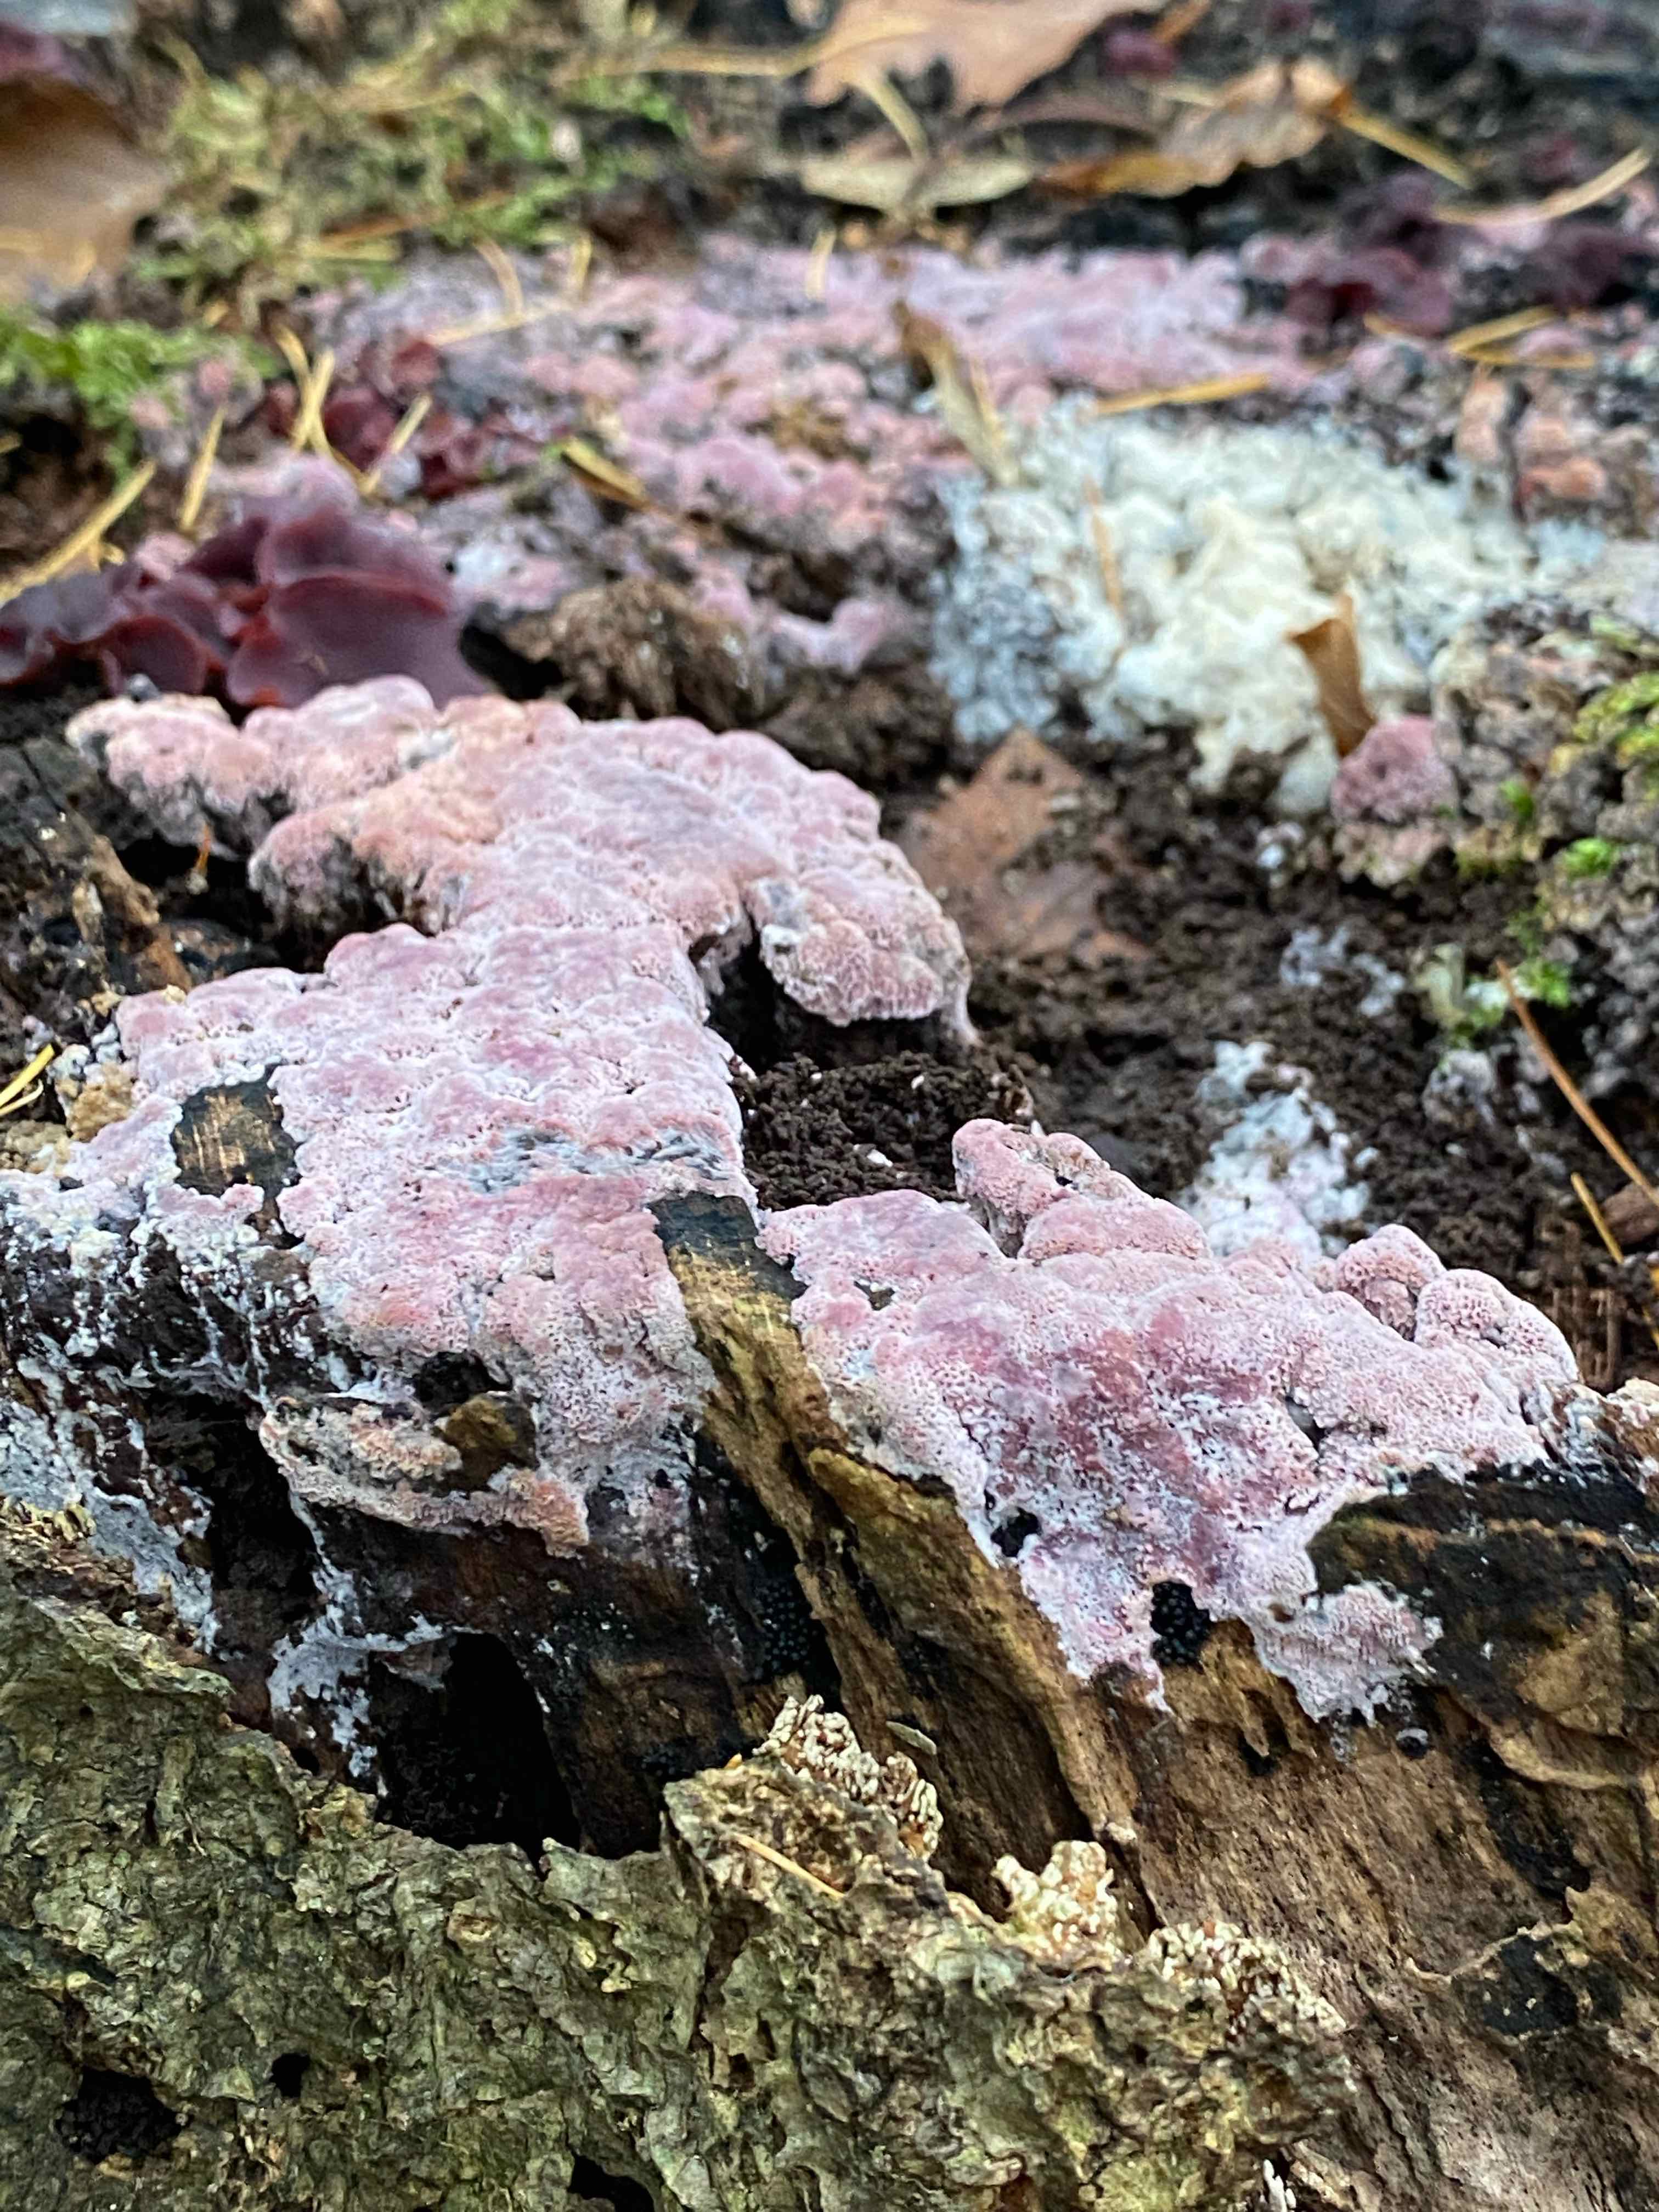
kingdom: Fungi
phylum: Basidiomycota
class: Agaricomycetes
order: Polyporales
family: Irpicaceae
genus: Ceriporia
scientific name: Ceriporia
